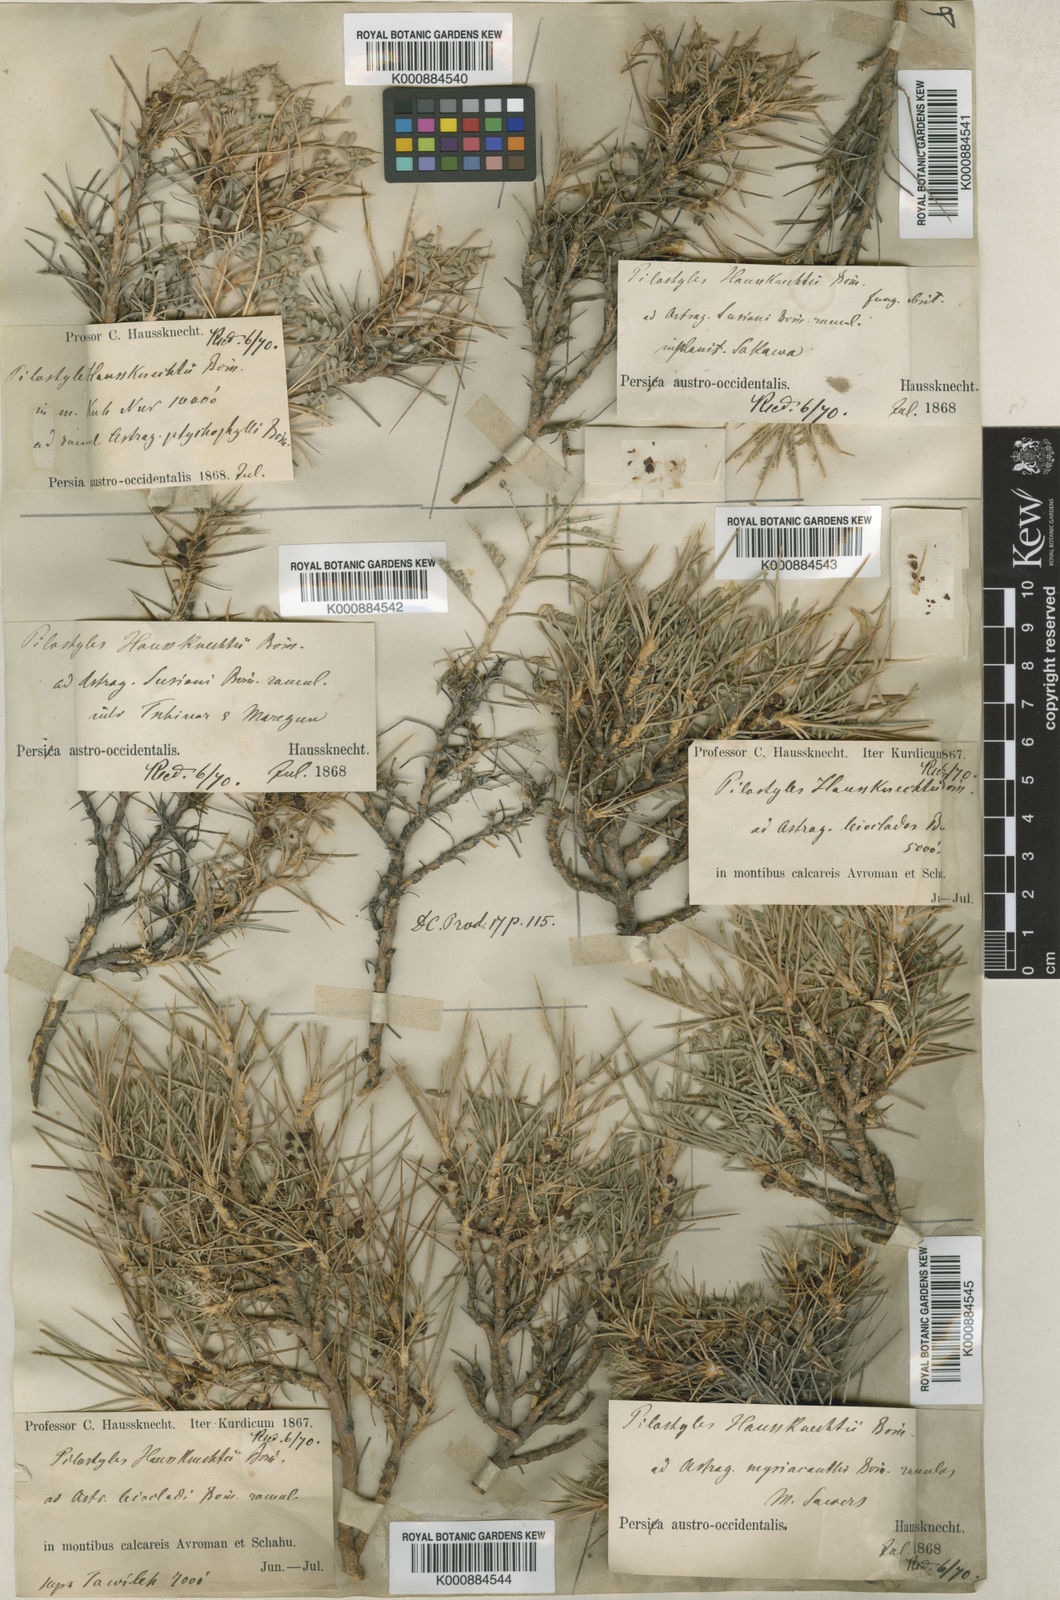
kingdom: Plantae
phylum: Tracheophyta
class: Magnoliopsida
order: Cucurbitales
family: Apodanthaceae
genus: Pilostyles
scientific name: Pilostyles haussknechtii
